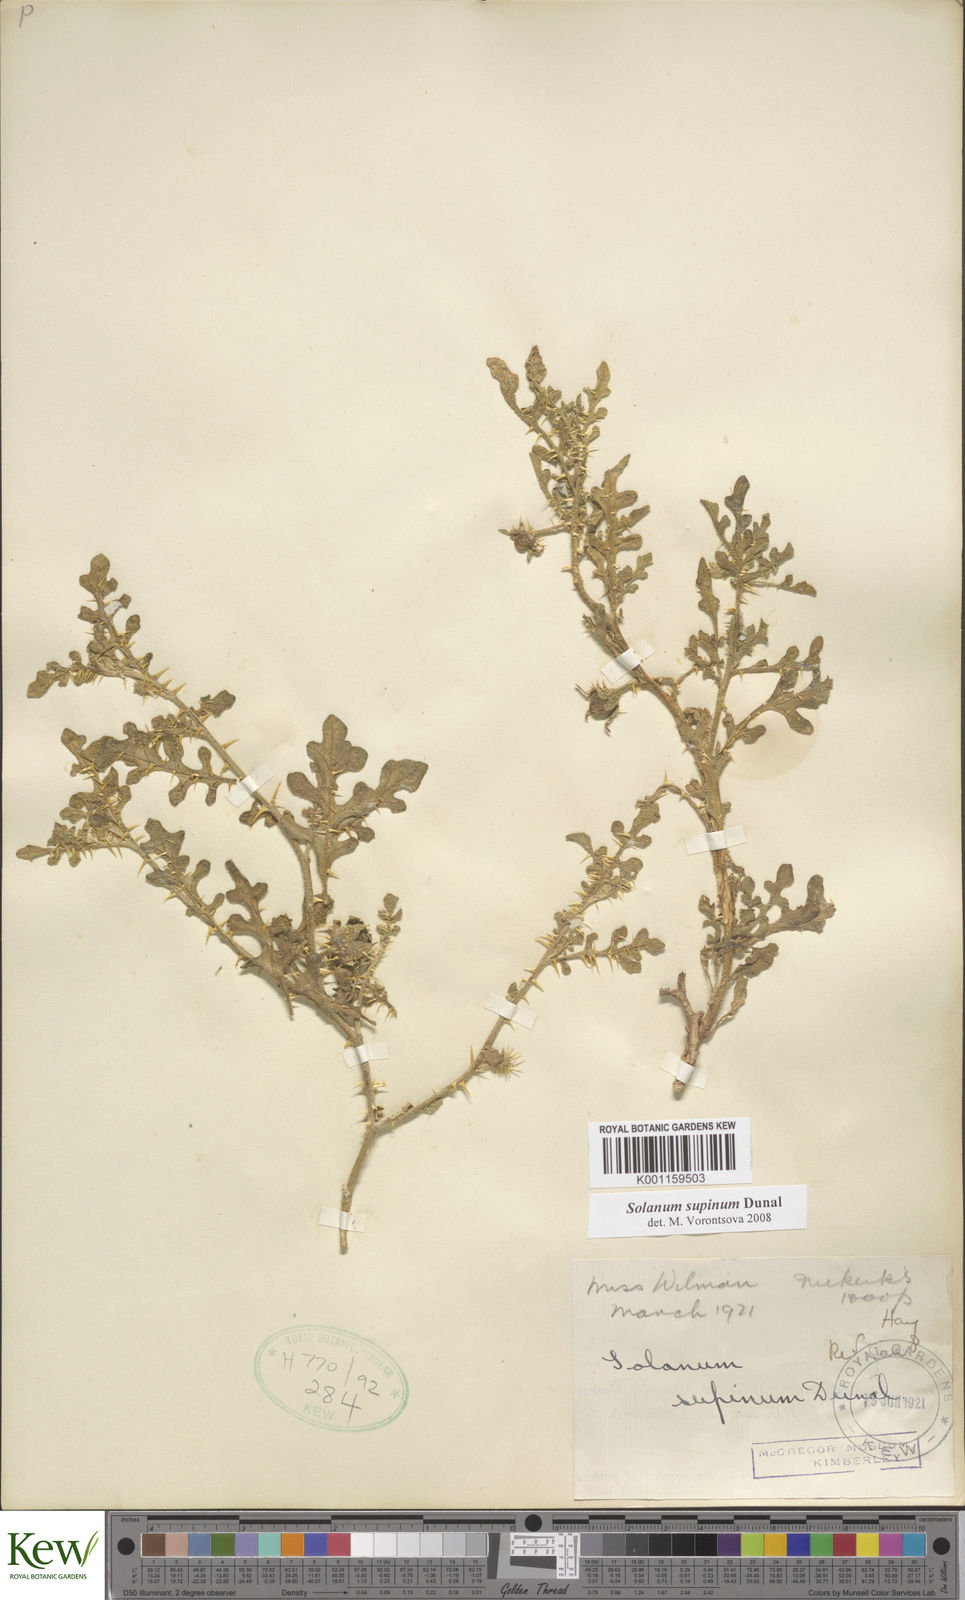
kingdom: Plantae
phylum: Tracheophyta
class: Magnoliopsida
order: Solanales
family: Solanaceae
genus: Solanum
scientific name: Solanum supinum
